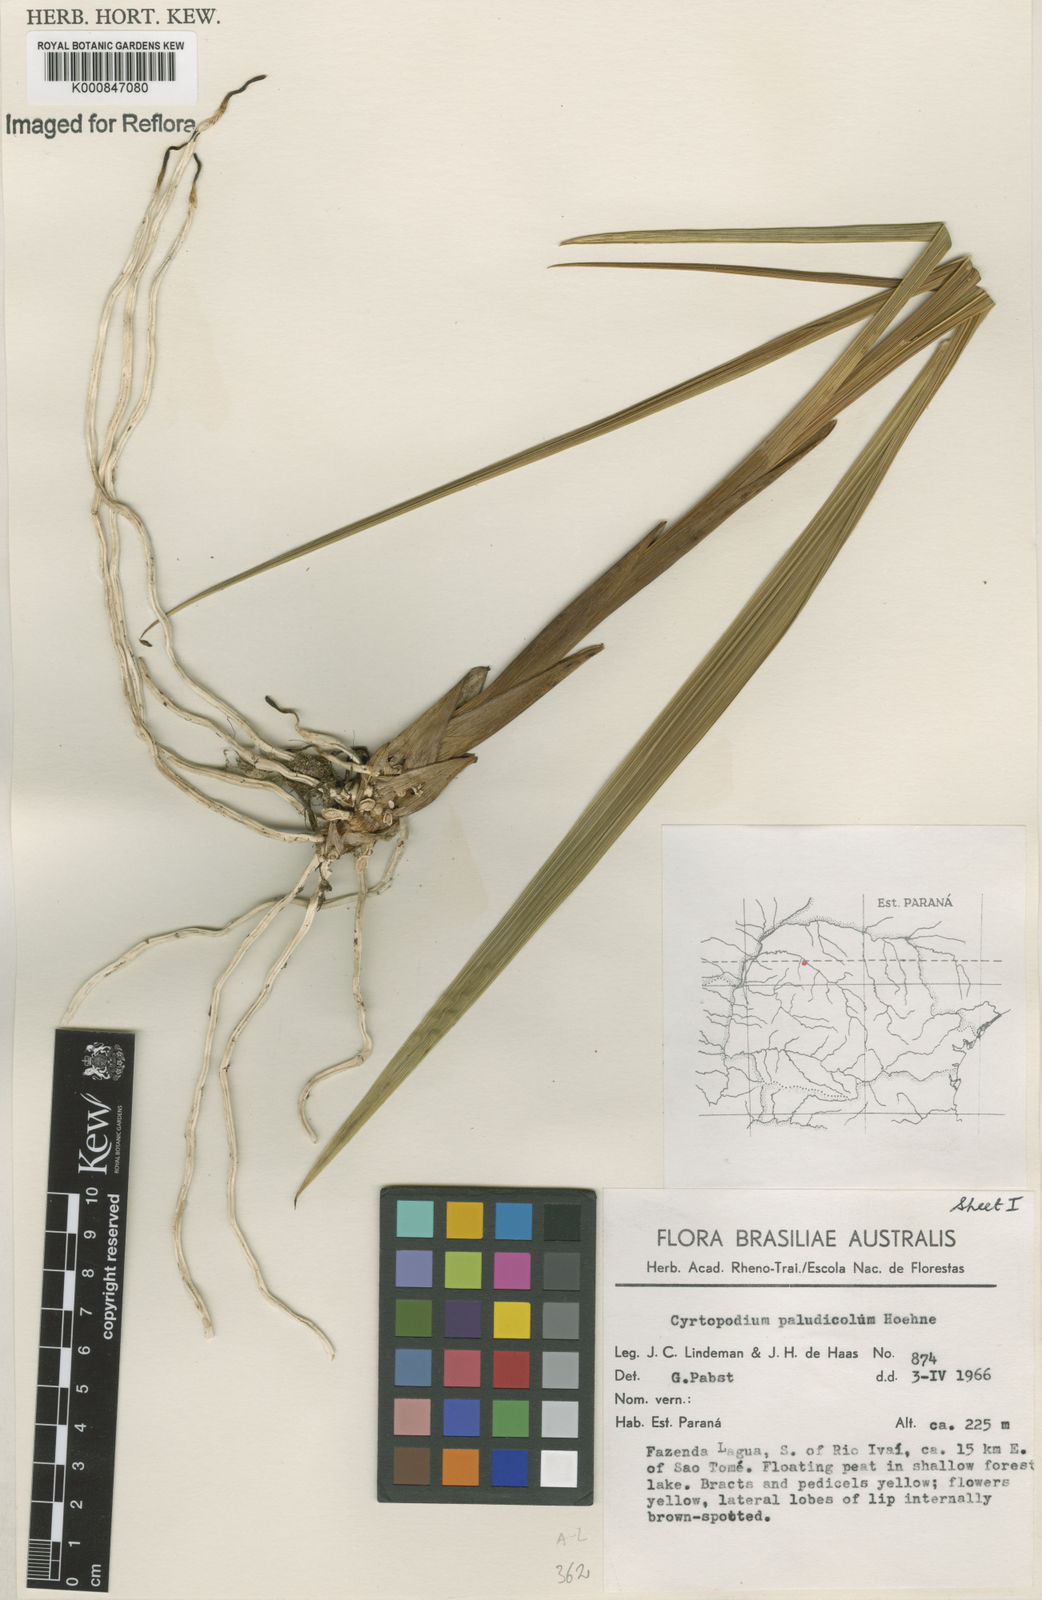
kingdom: Plantae
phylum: Tracheophyta
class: Liliopsida
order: Asparagales
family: Orchidaceae
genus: Cyrtopodium
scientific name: Cyrtopodium paludicola
